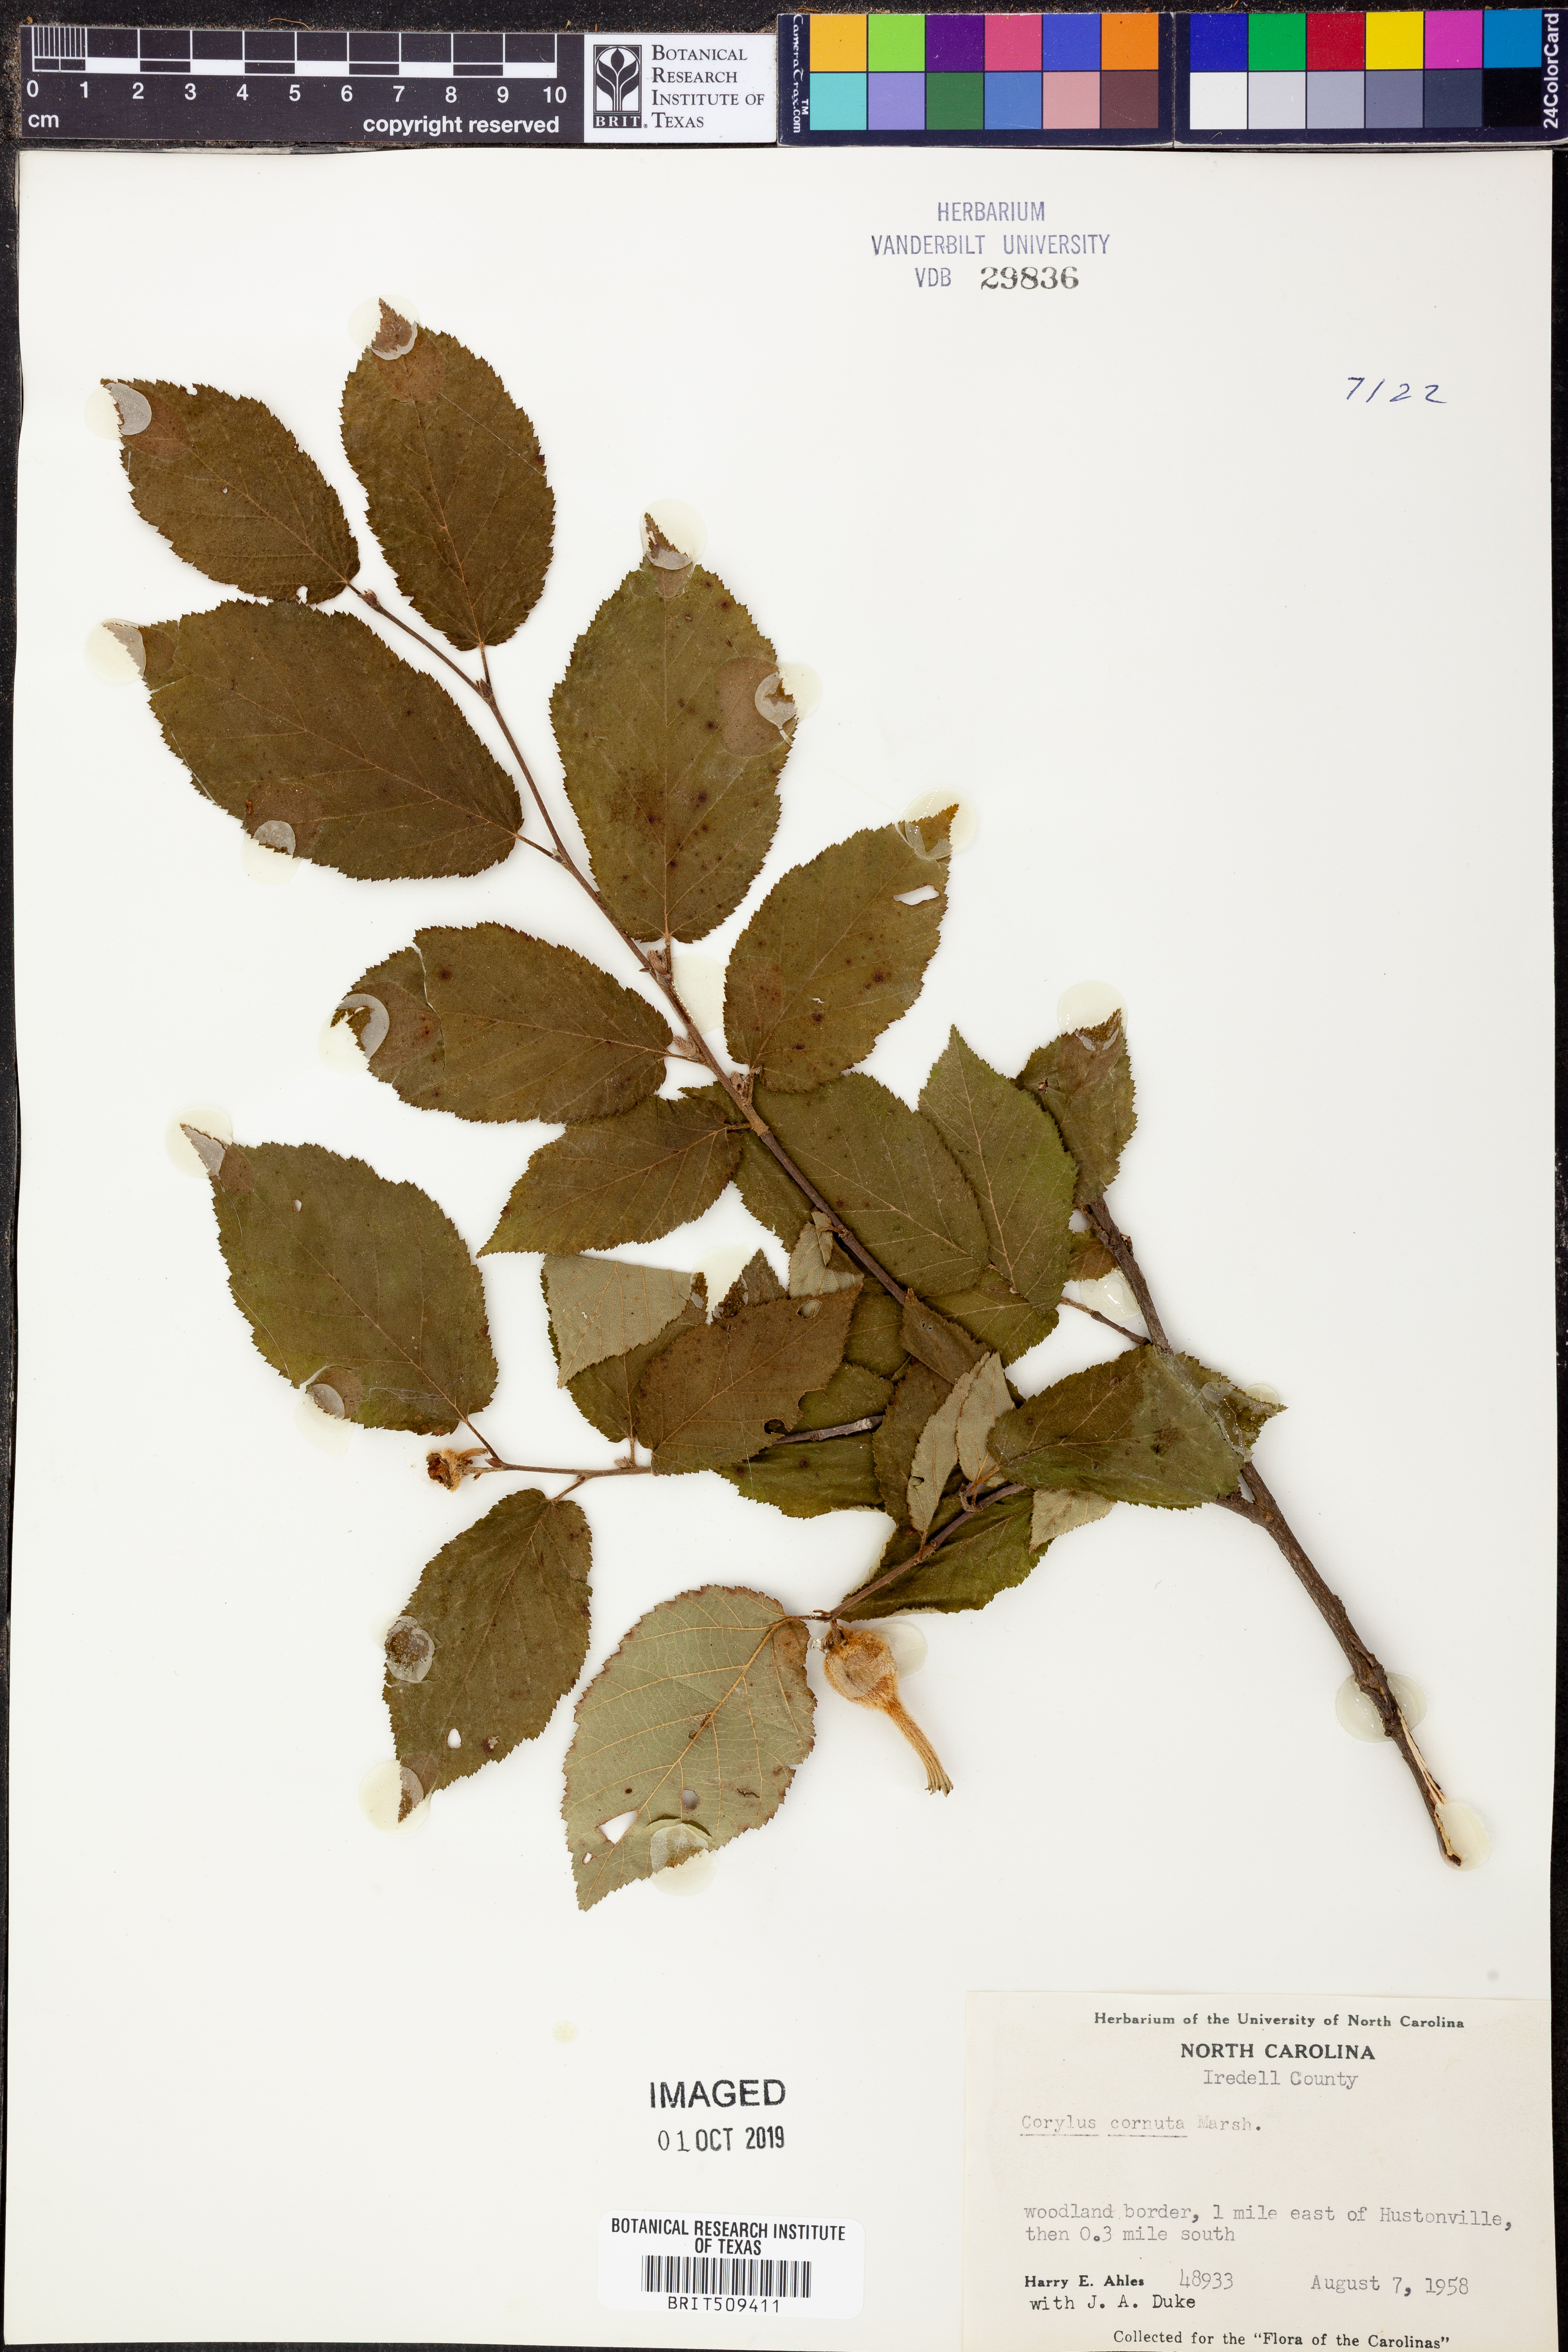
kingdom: Plantae
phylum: Tracheophyta
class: Magnoliopsida
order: Fagales
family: Betulaceae
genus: Corylus
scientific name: Corylus cornuta
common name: Beaked hazel
